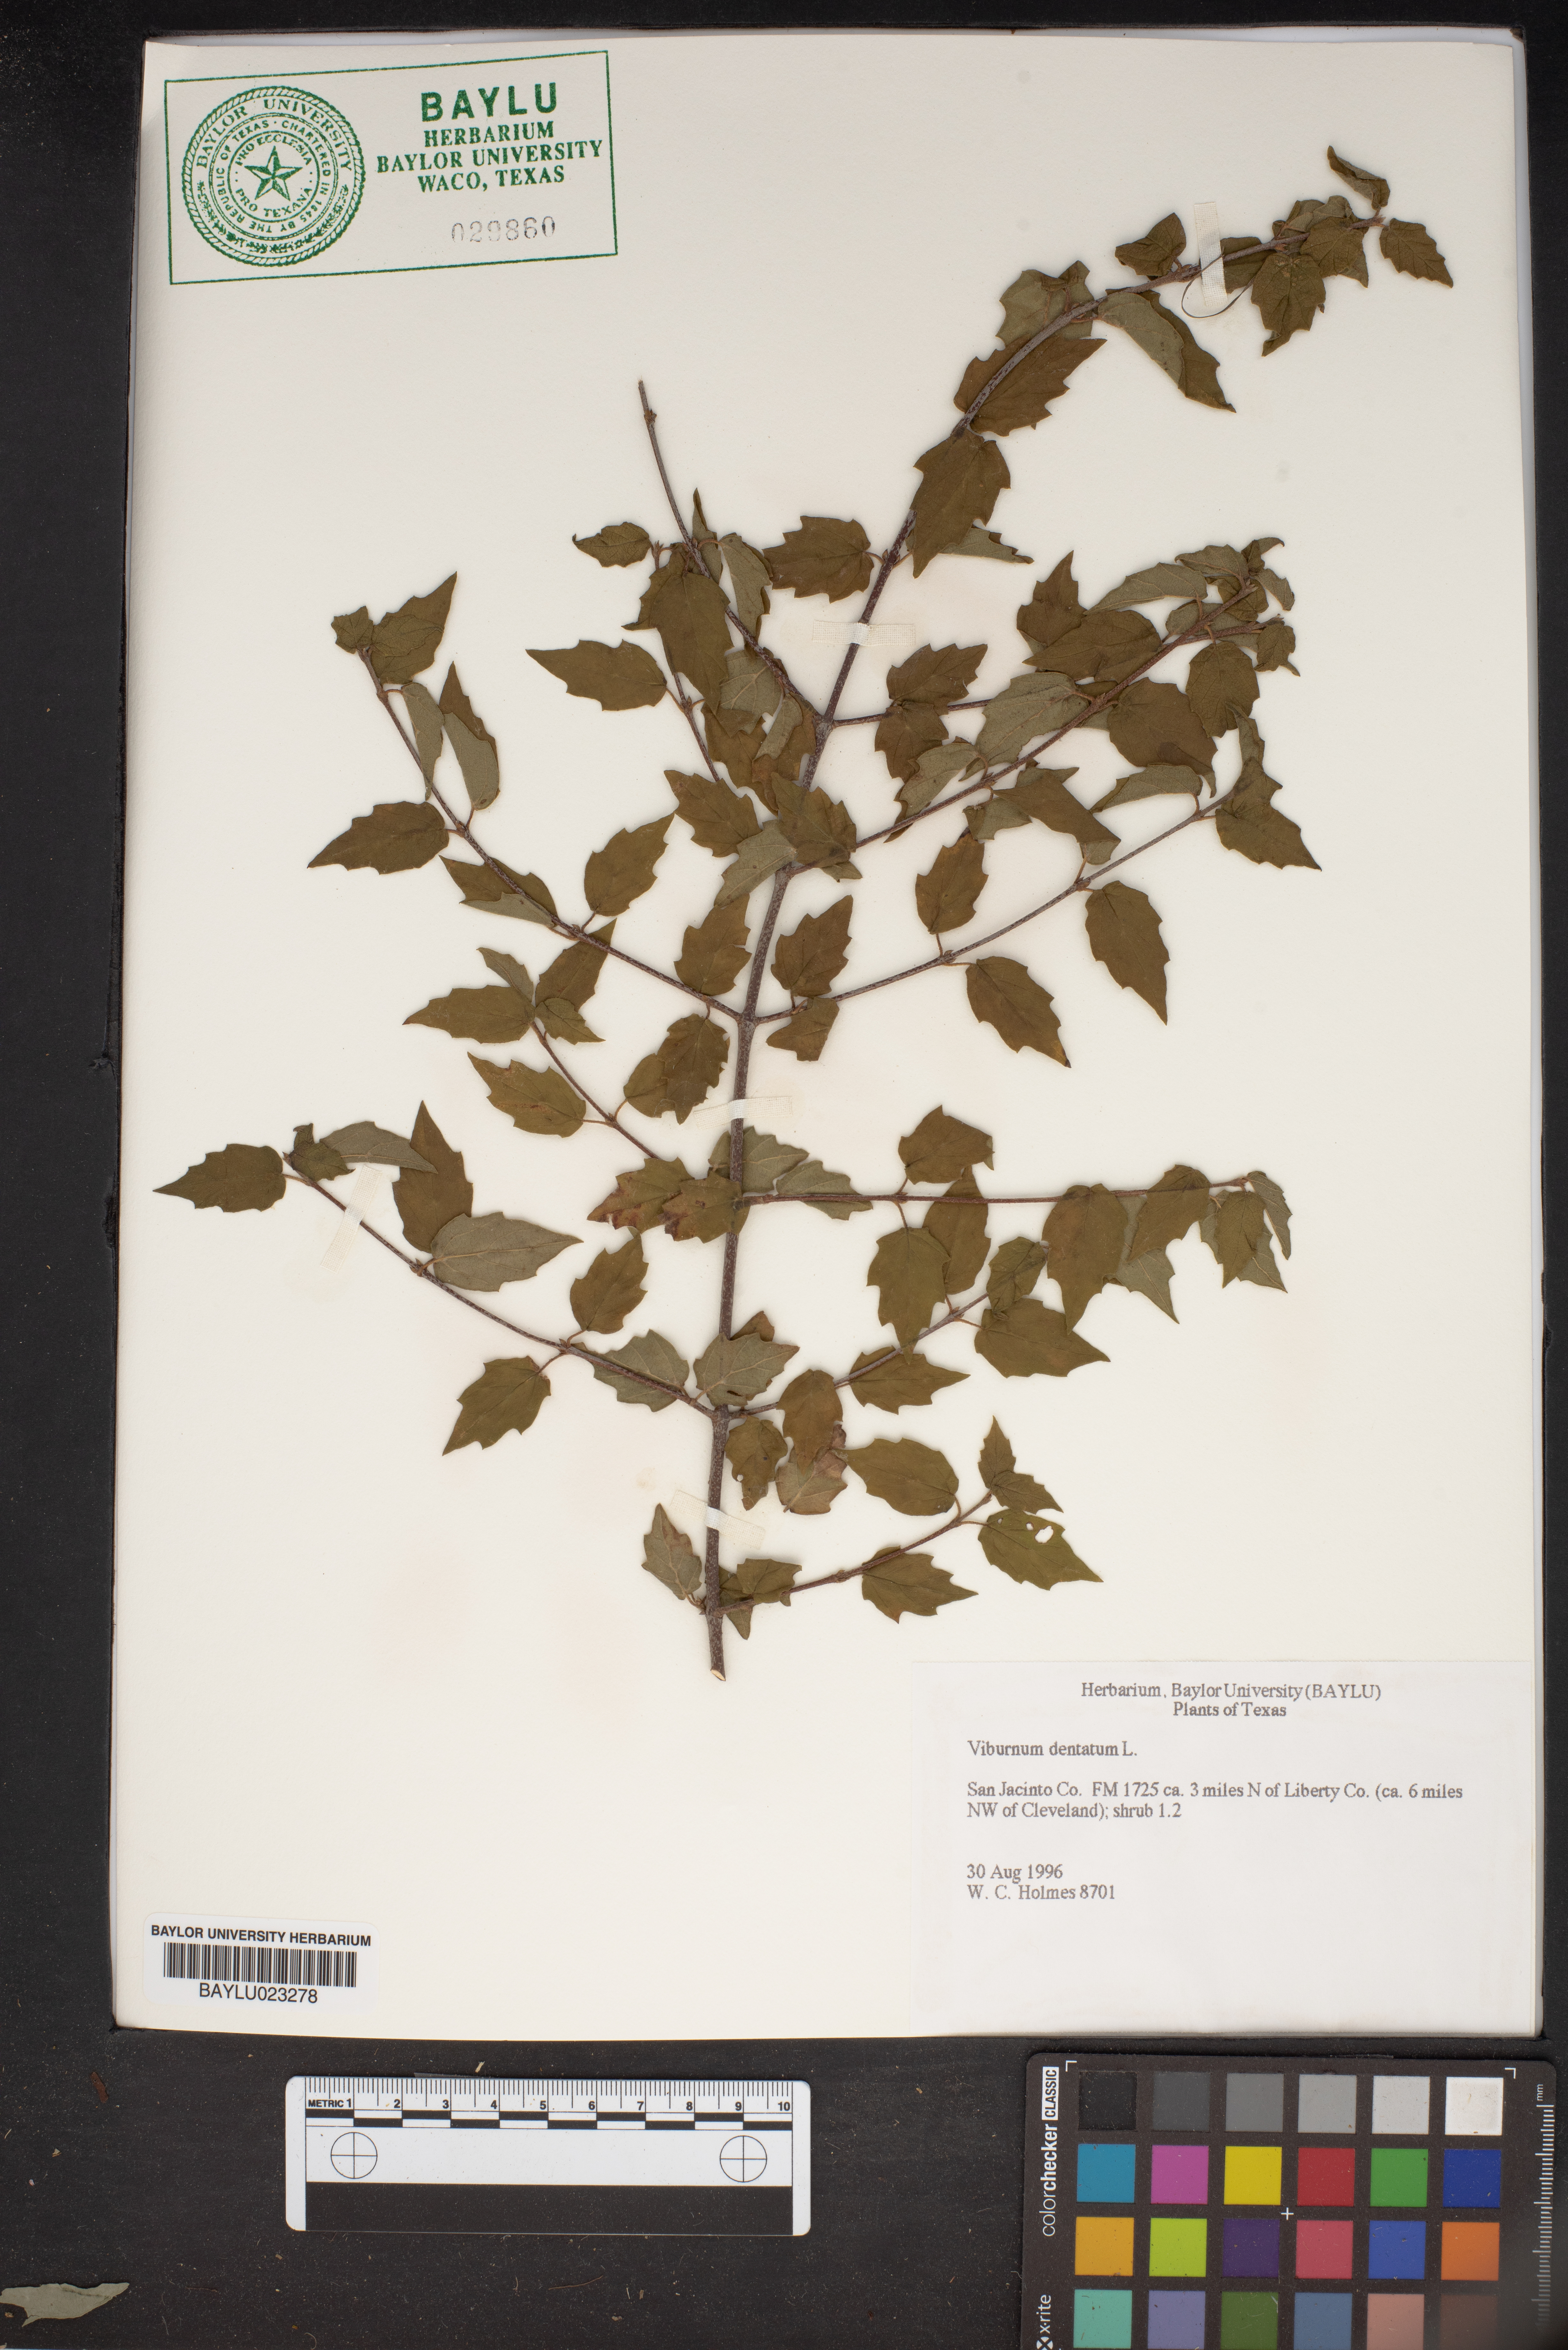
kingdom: Plantae
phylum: Tracheophyta
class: Magnoliopsida
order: Dipsacales
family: Viburnaceae
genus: Viburnum
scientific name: Viburnum dentatum
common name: Arrow-wood
